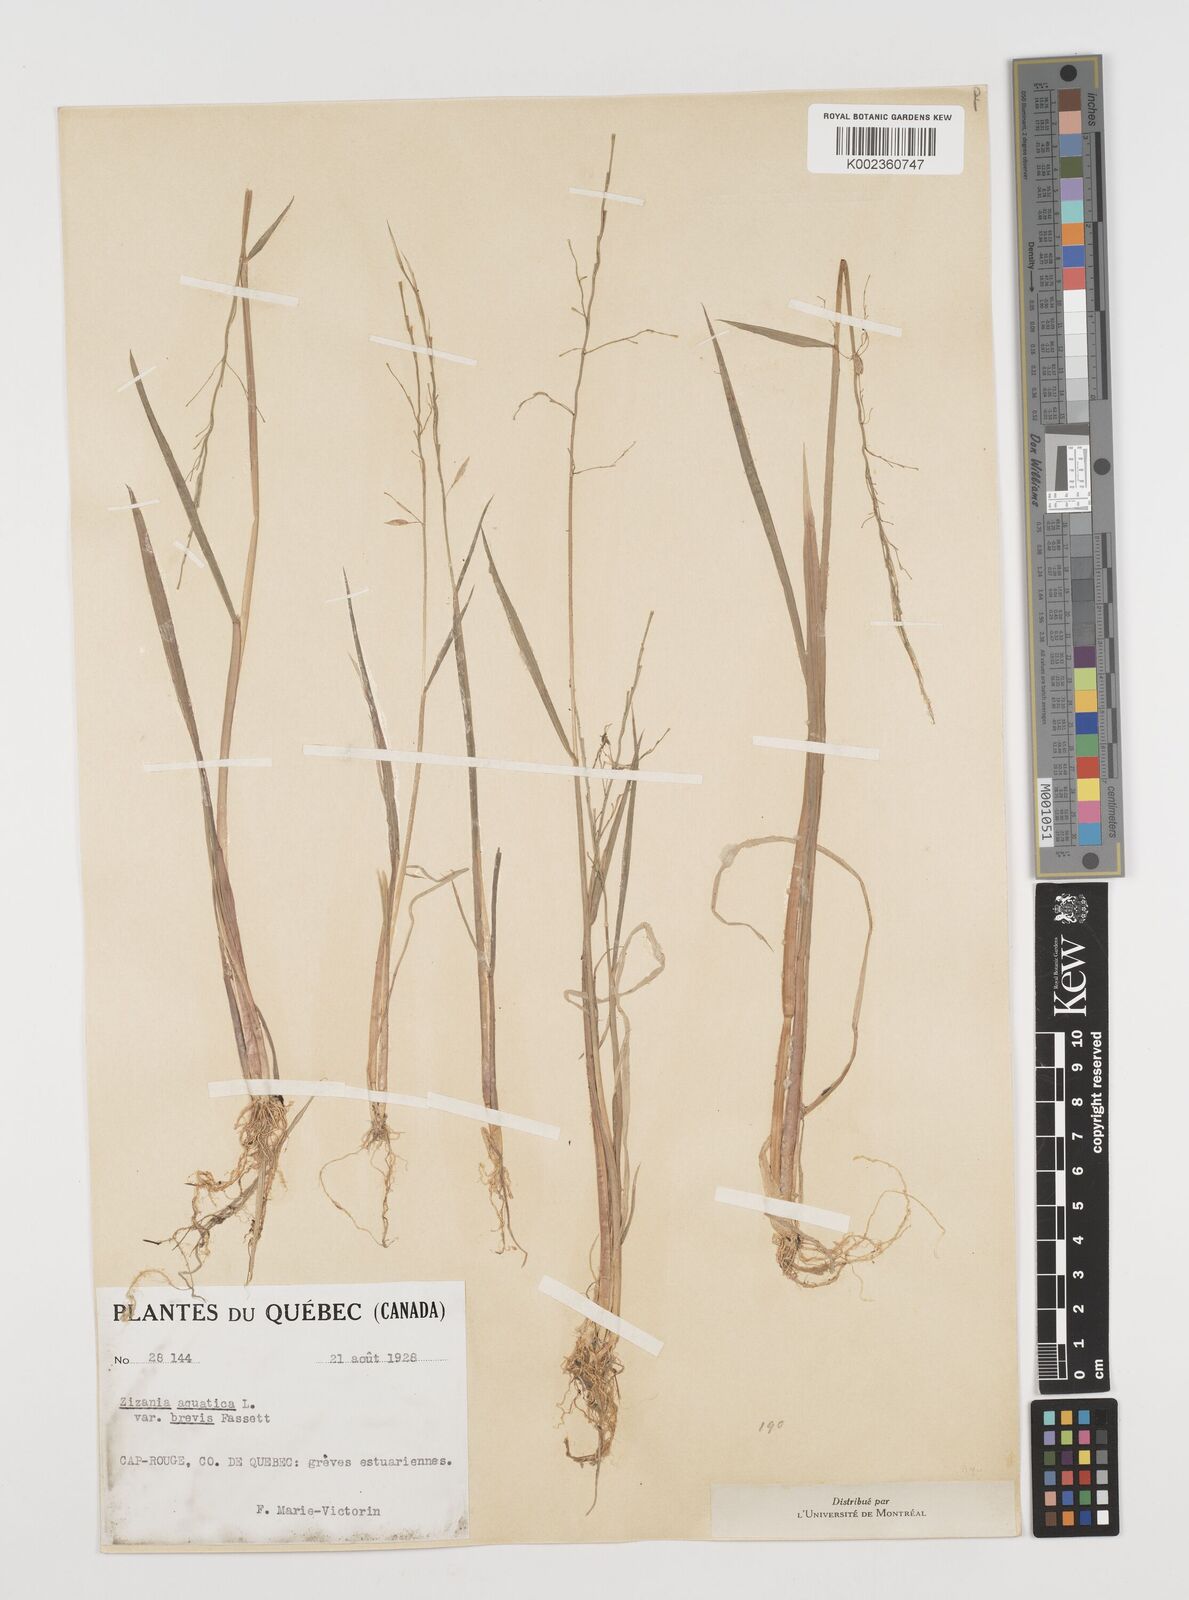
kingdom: Plantae
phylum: Tracheophyta
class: Liliopsida
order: Poales
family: Poaceae
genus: Zizania
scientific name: Zizania aquatica
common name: Annual wildrice
